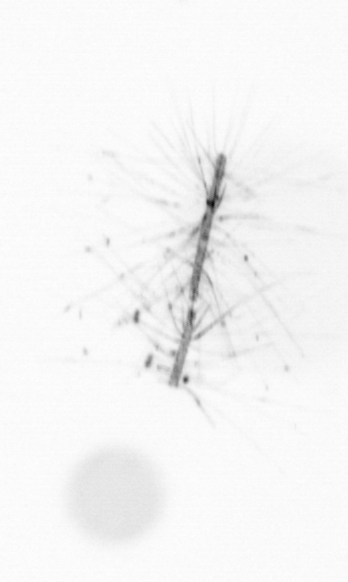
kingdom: Chromista
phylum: Ochrophyta
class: Bacillariophyceae
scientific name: Bacillariophyceae
